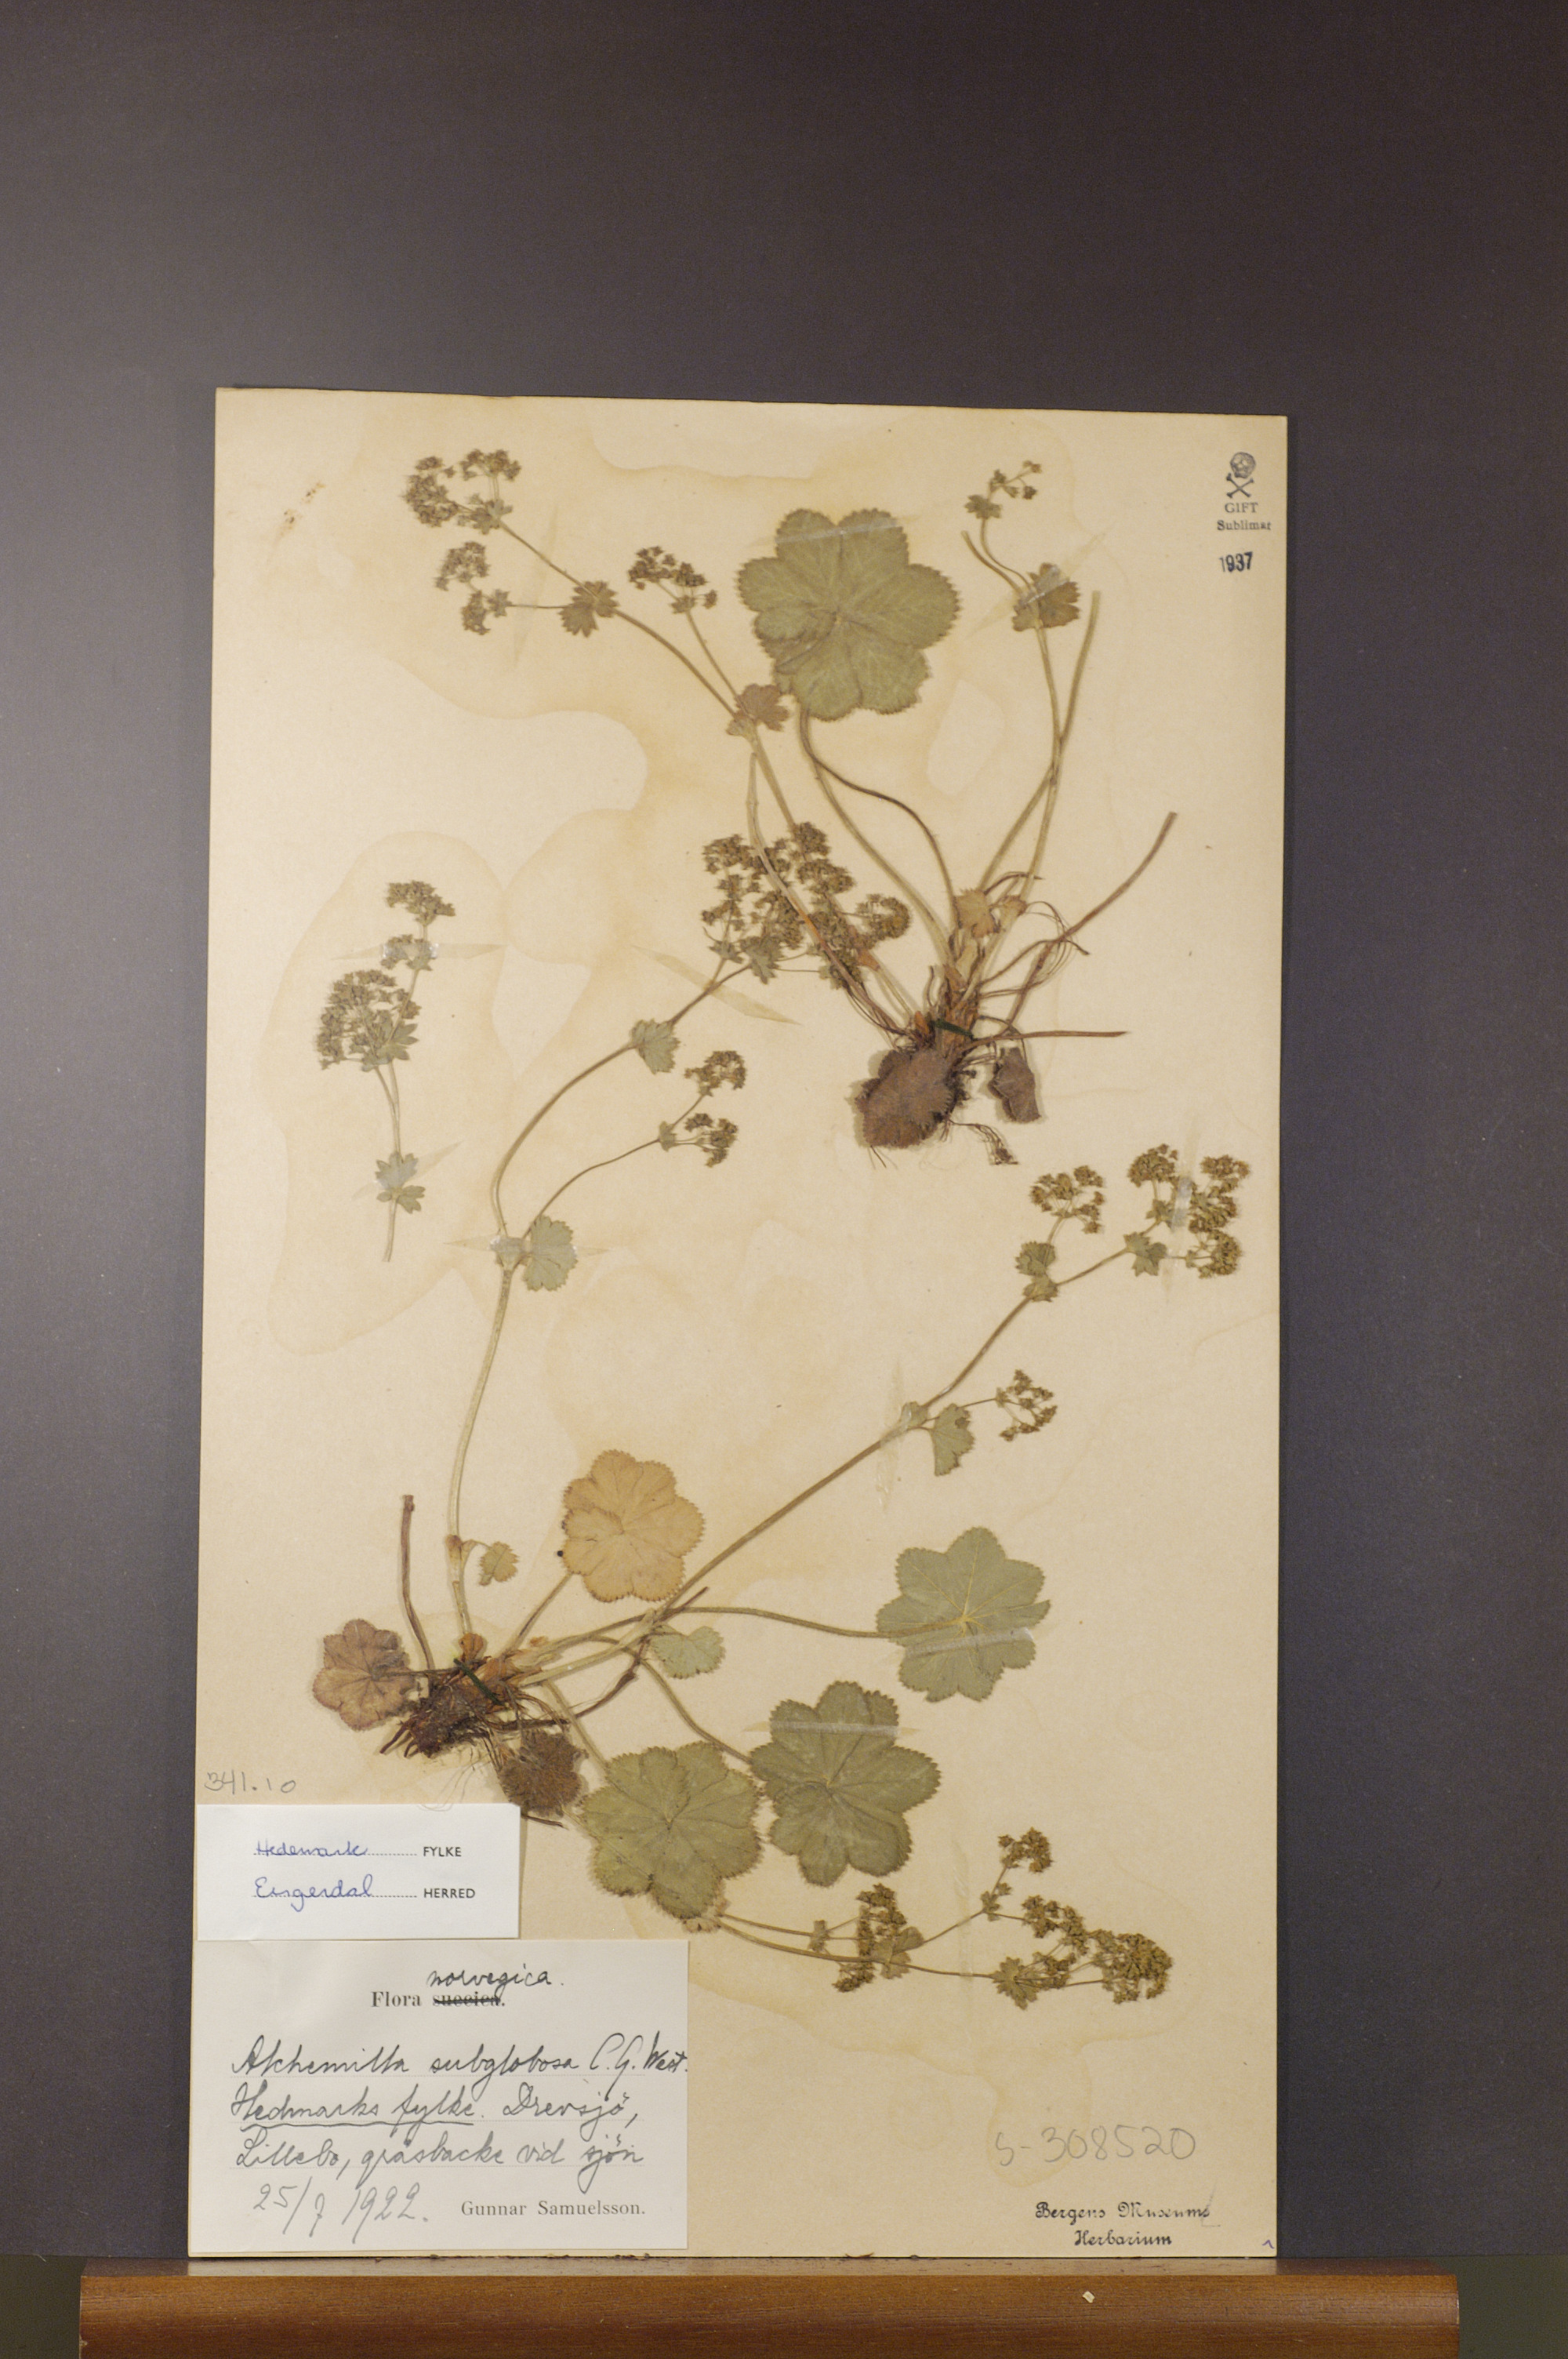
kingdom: Plantae
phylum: Tracheophyta
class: Magnoliopsida
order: Rosales
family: Rosaceae
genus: Alchemilla
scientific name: Alchemilla subglobosa
